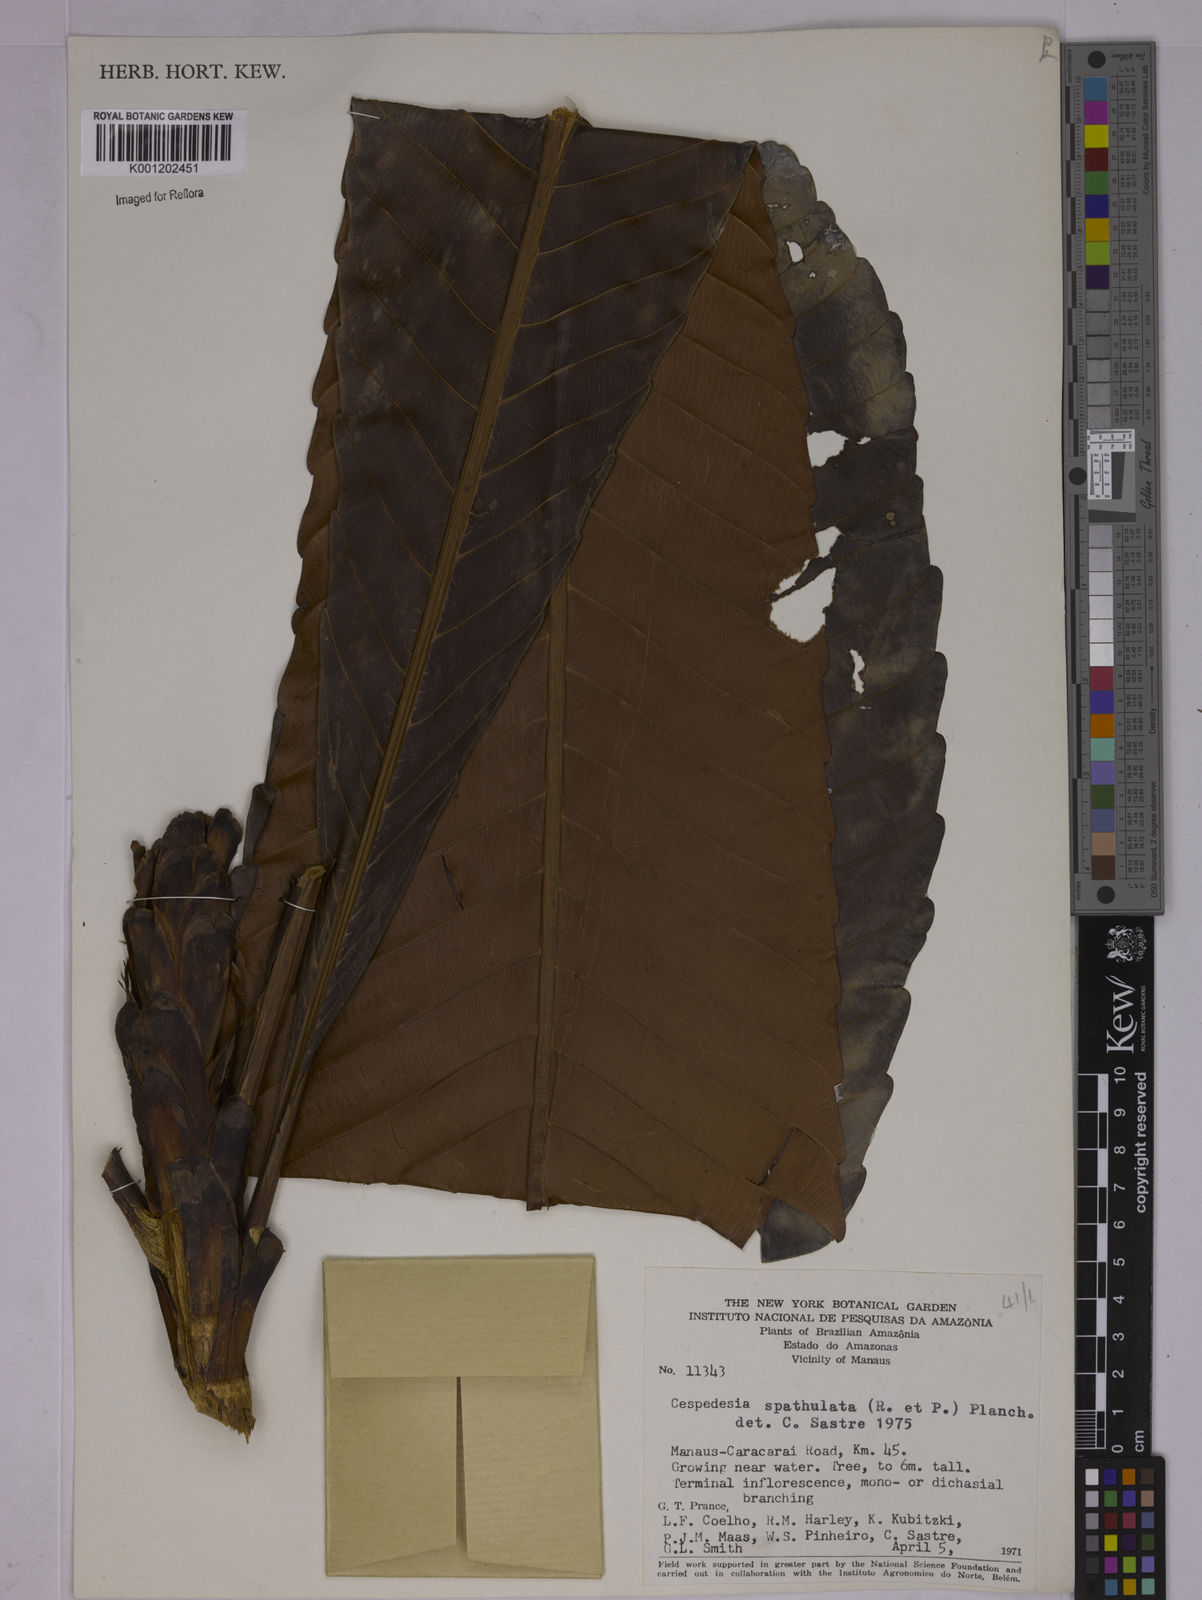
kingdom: Plantae
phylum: Tracheophyta
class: Magnoliopsida
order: Malpighiales
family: Ochnaceae
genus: Cespedesia
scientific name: Cespedesia spathulata
